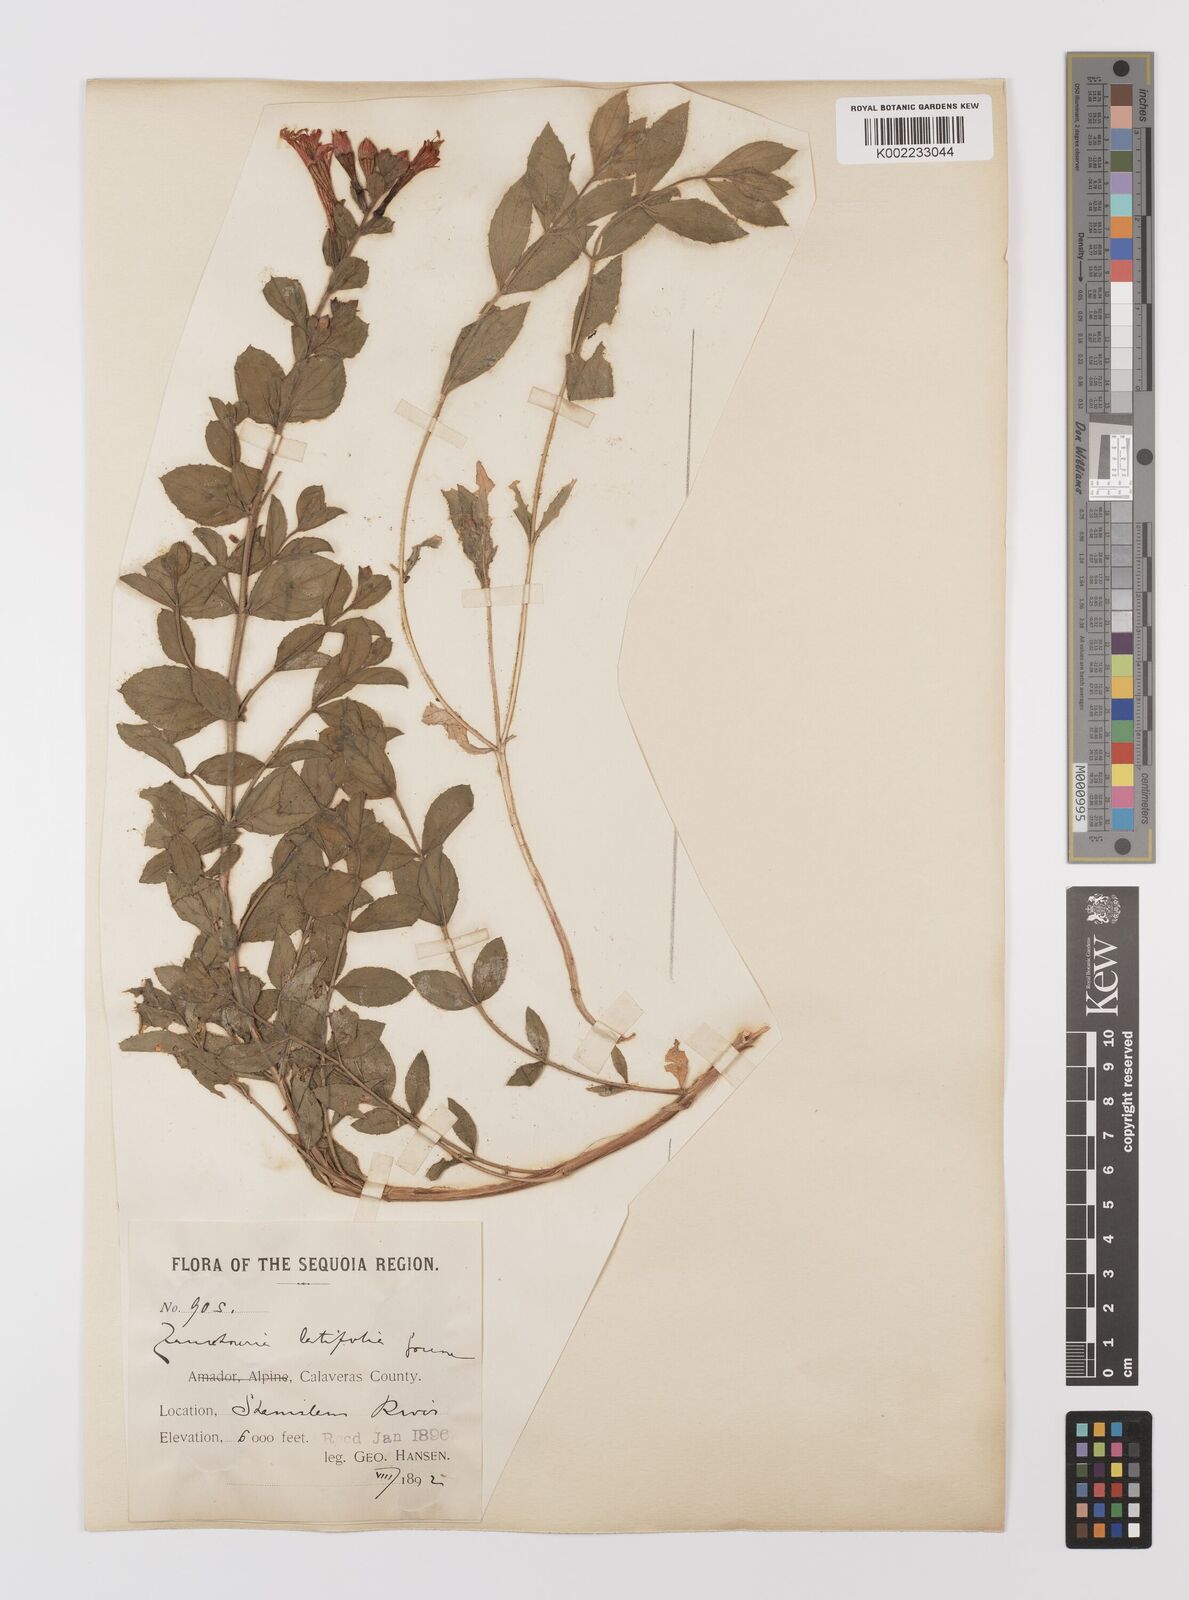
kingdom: Plantae
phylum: Tracheophyta
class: Magnoliopsida
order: Myrtales
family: Onagraceae
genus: Epilobium
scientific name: Epilobium
